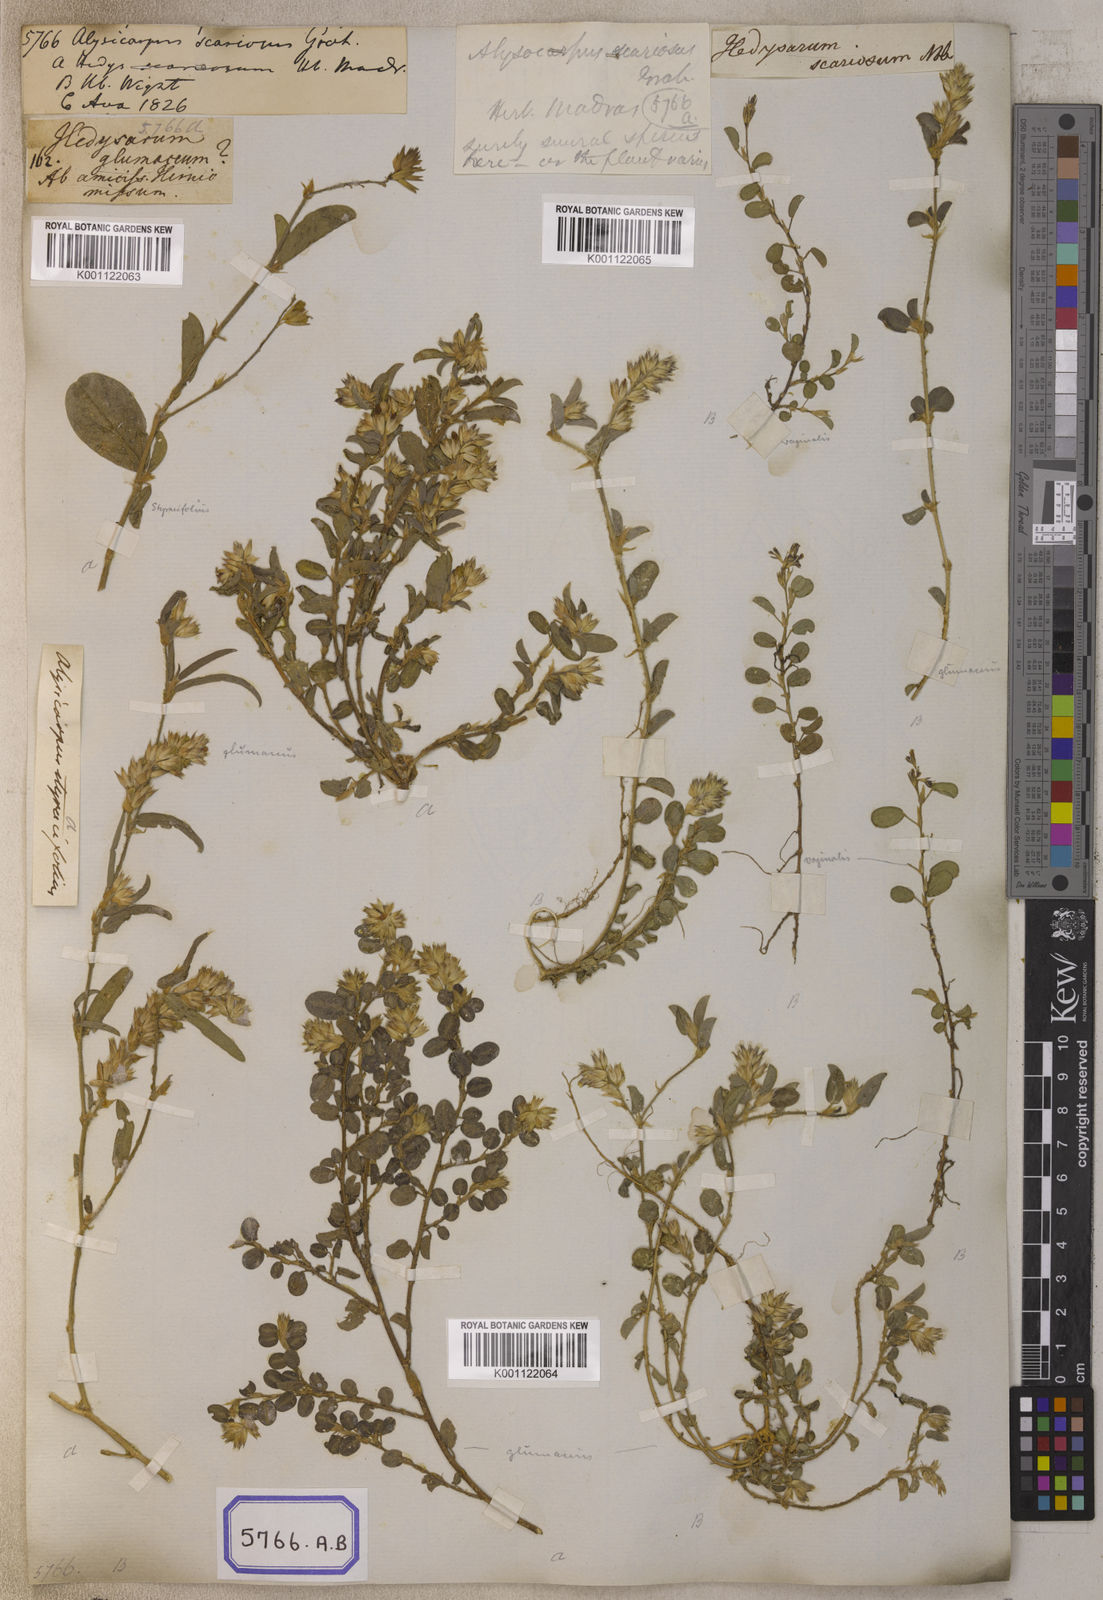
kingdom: Plantae
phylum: Tracheophyta
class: Magnoliopsida
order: Fabales
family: Fabaceae
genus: Alysicarpus
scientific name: Alysicarpus scariosus
